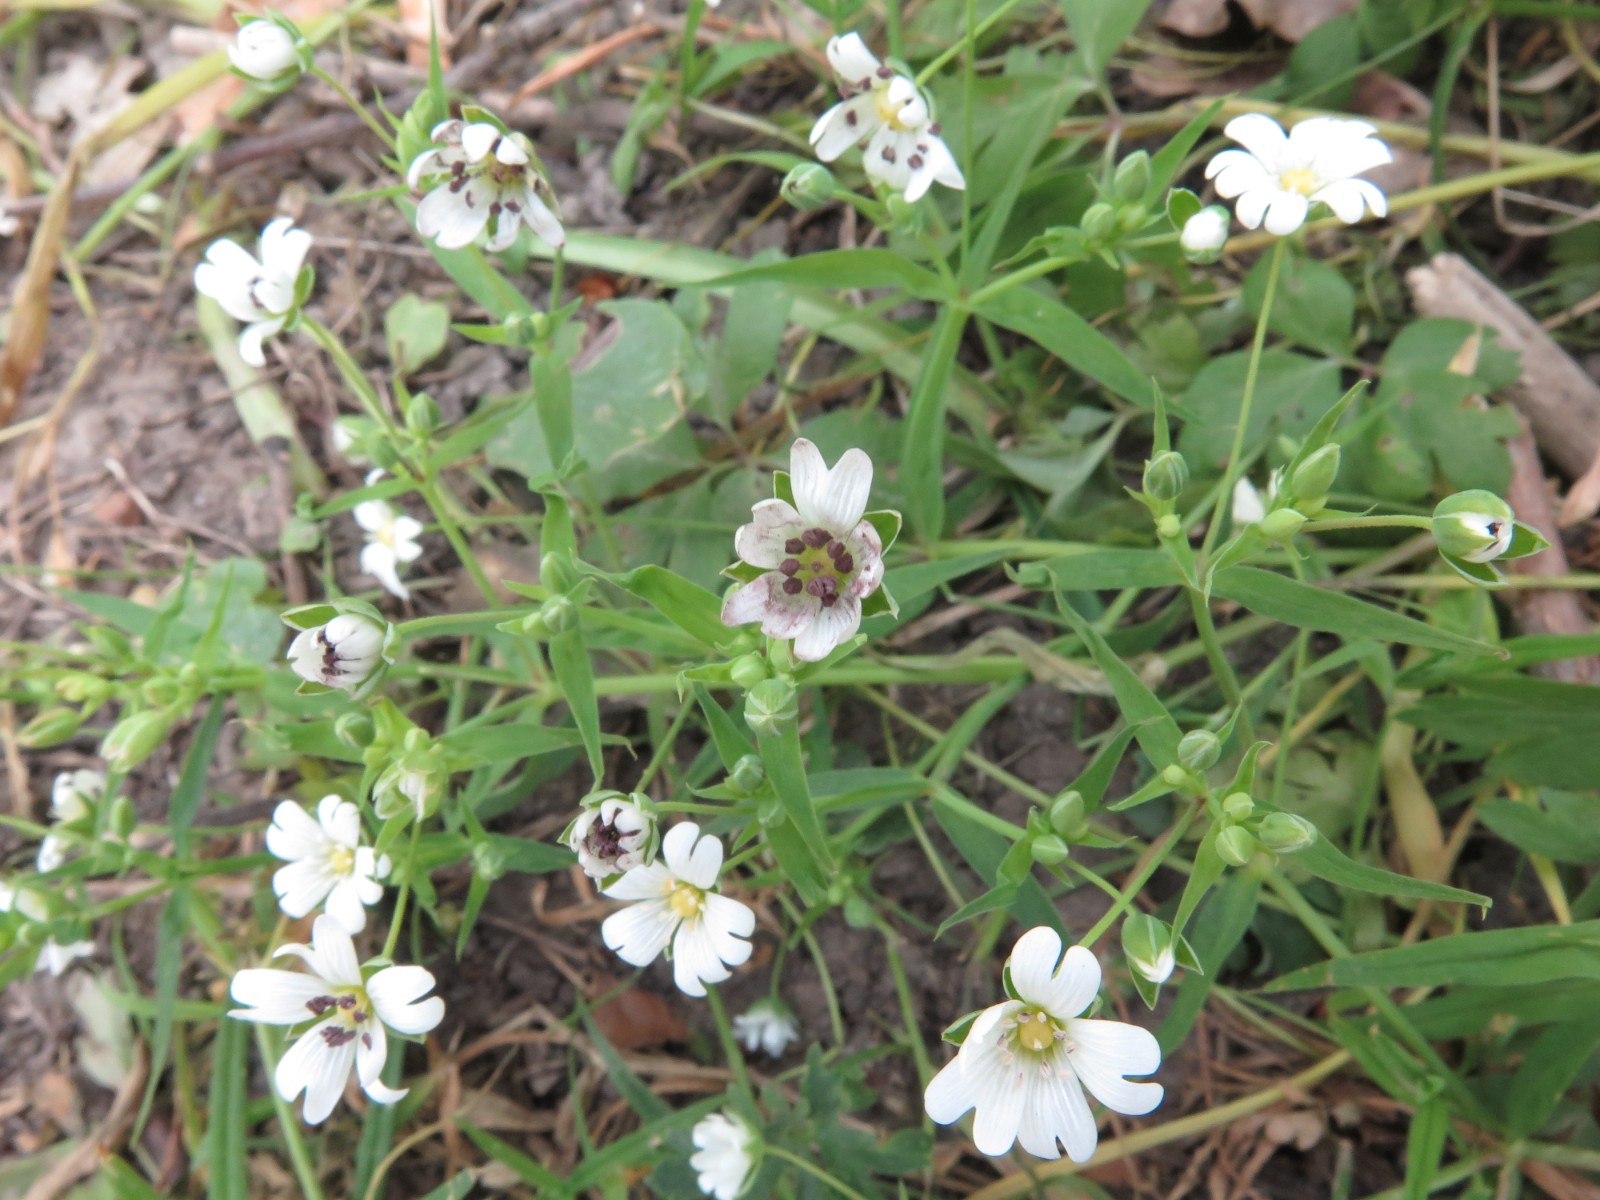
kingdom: Fungi
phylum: Basidiomycota
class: Microbotryomycetes
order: Microbotryales
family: Microbotryaceae
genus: Microbotryum
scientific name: Microbotryum stellariae
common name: fladstjerne-støvbladrust
